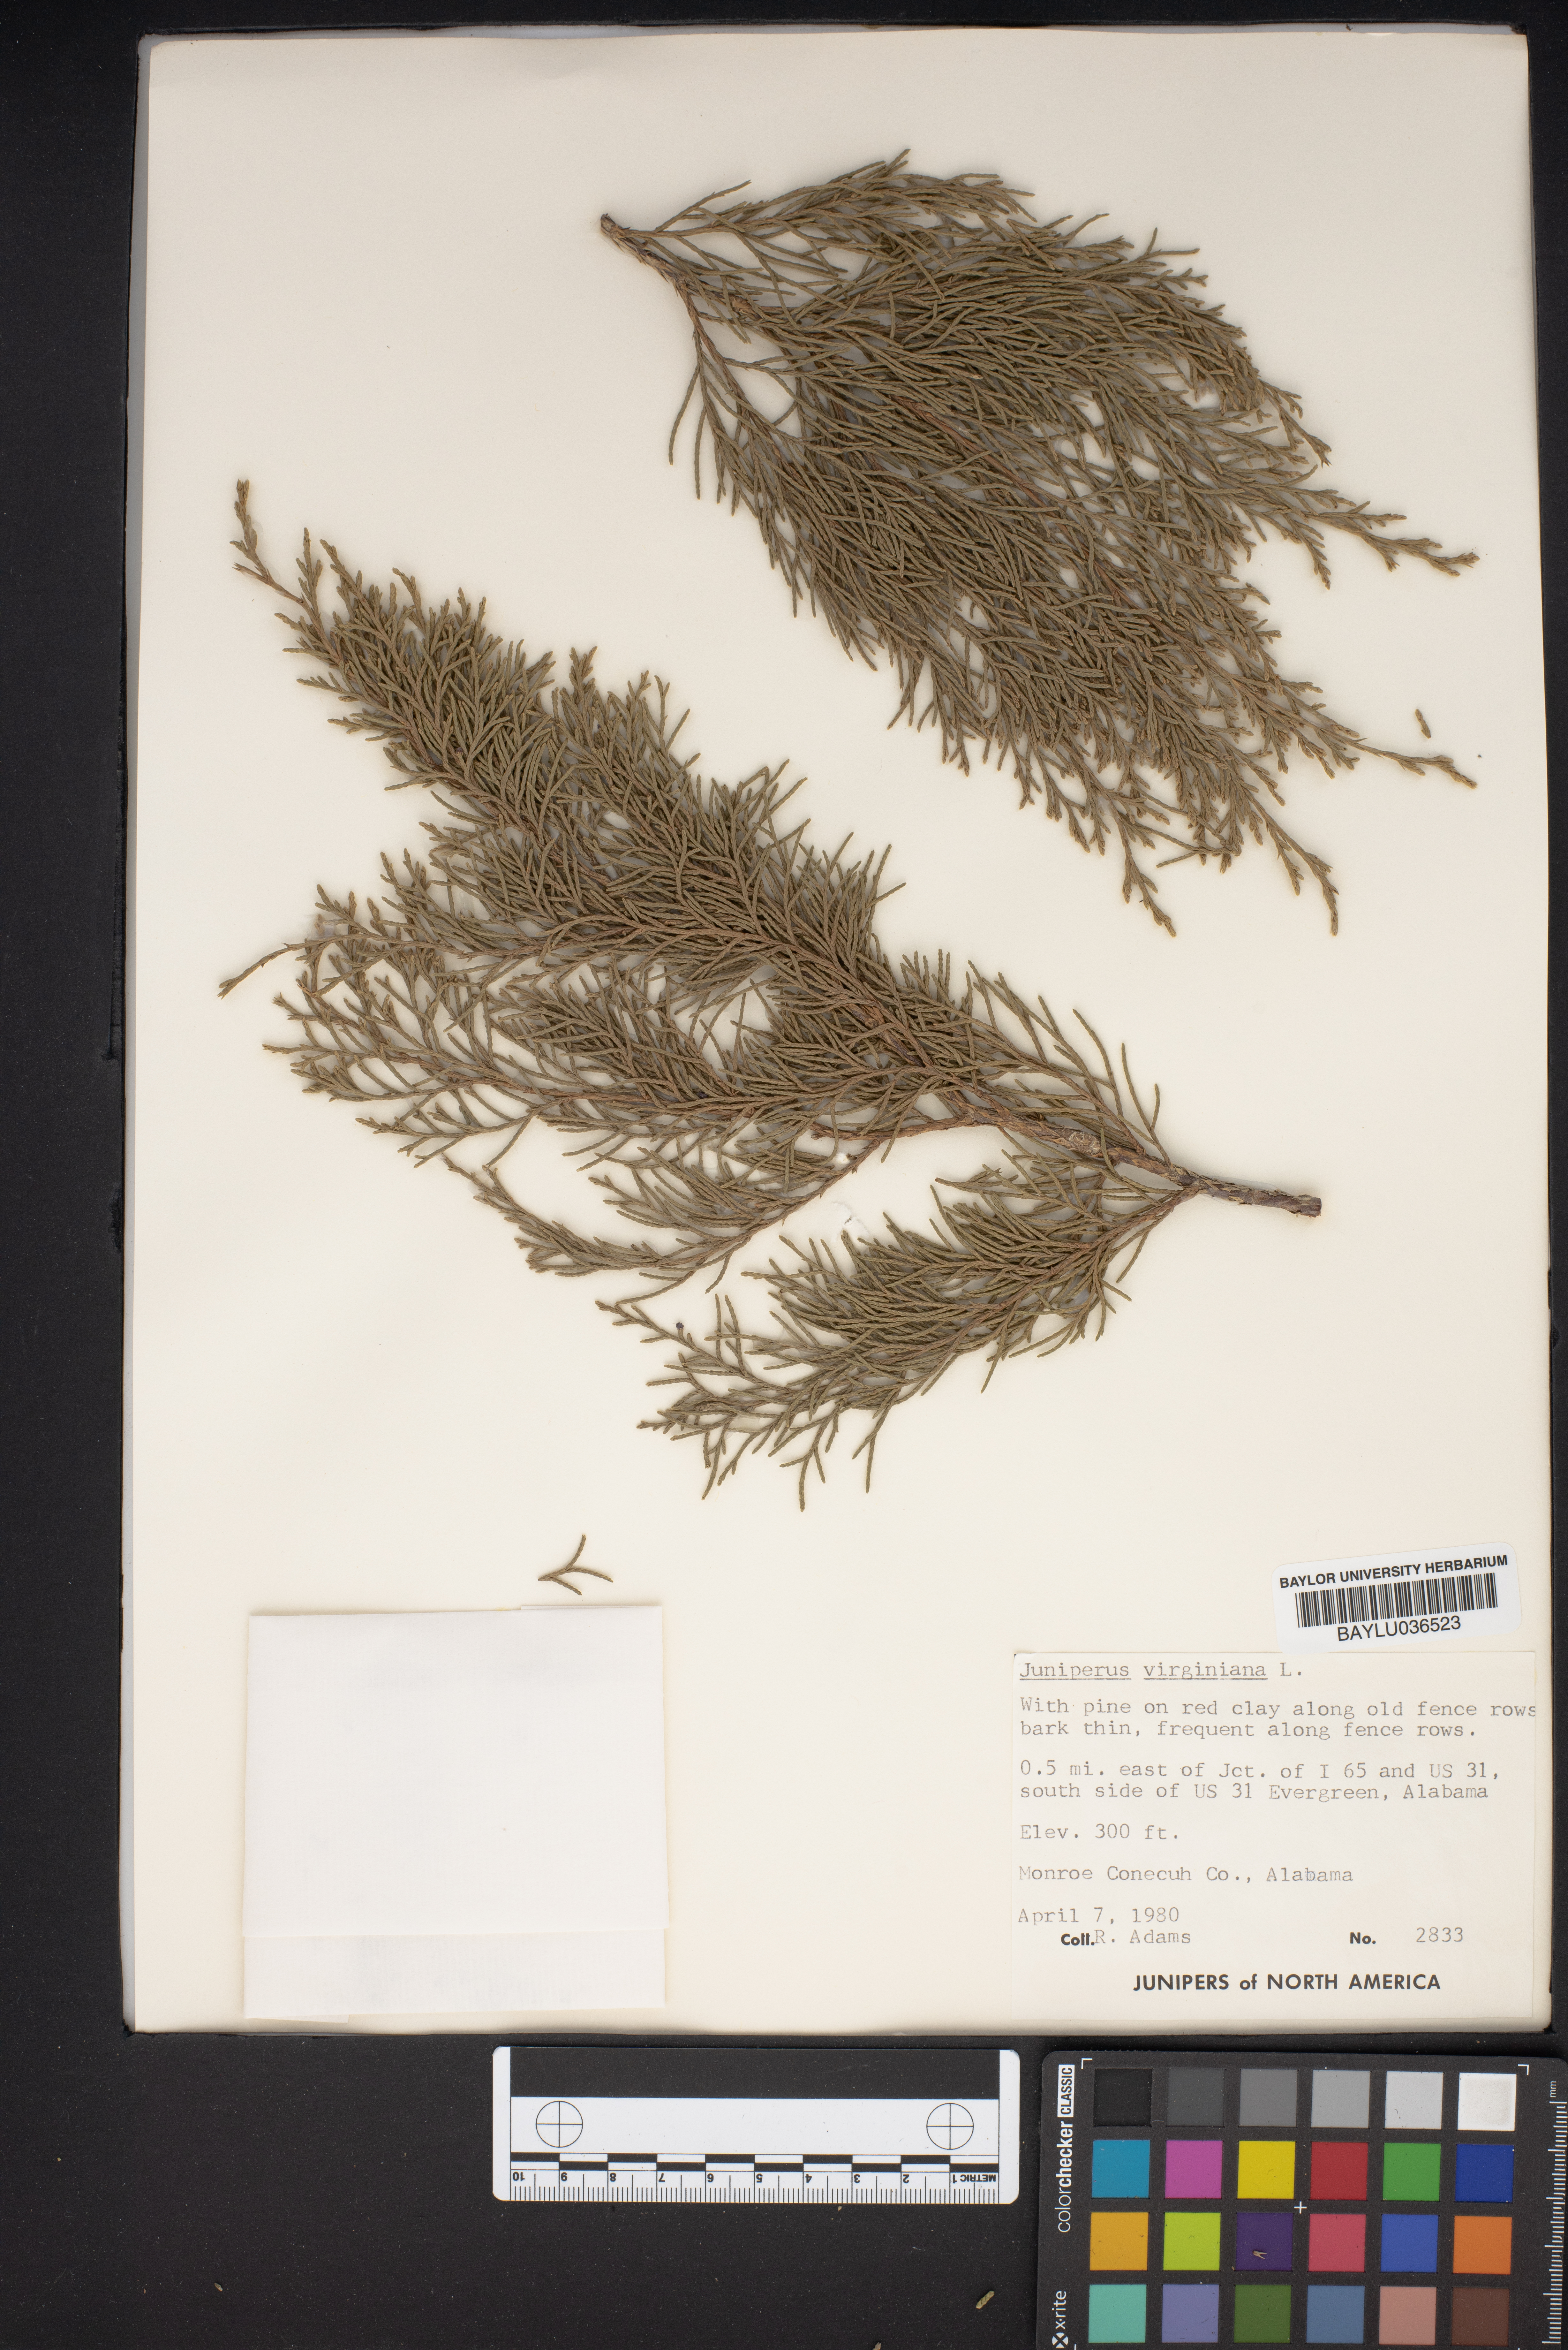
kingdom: Plantae
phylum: Tracheophyta
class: Pinopsida
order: Pinales
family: Cupressaceae
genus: Juniperus
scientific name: Juniperus virginiana
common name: Red juniper
